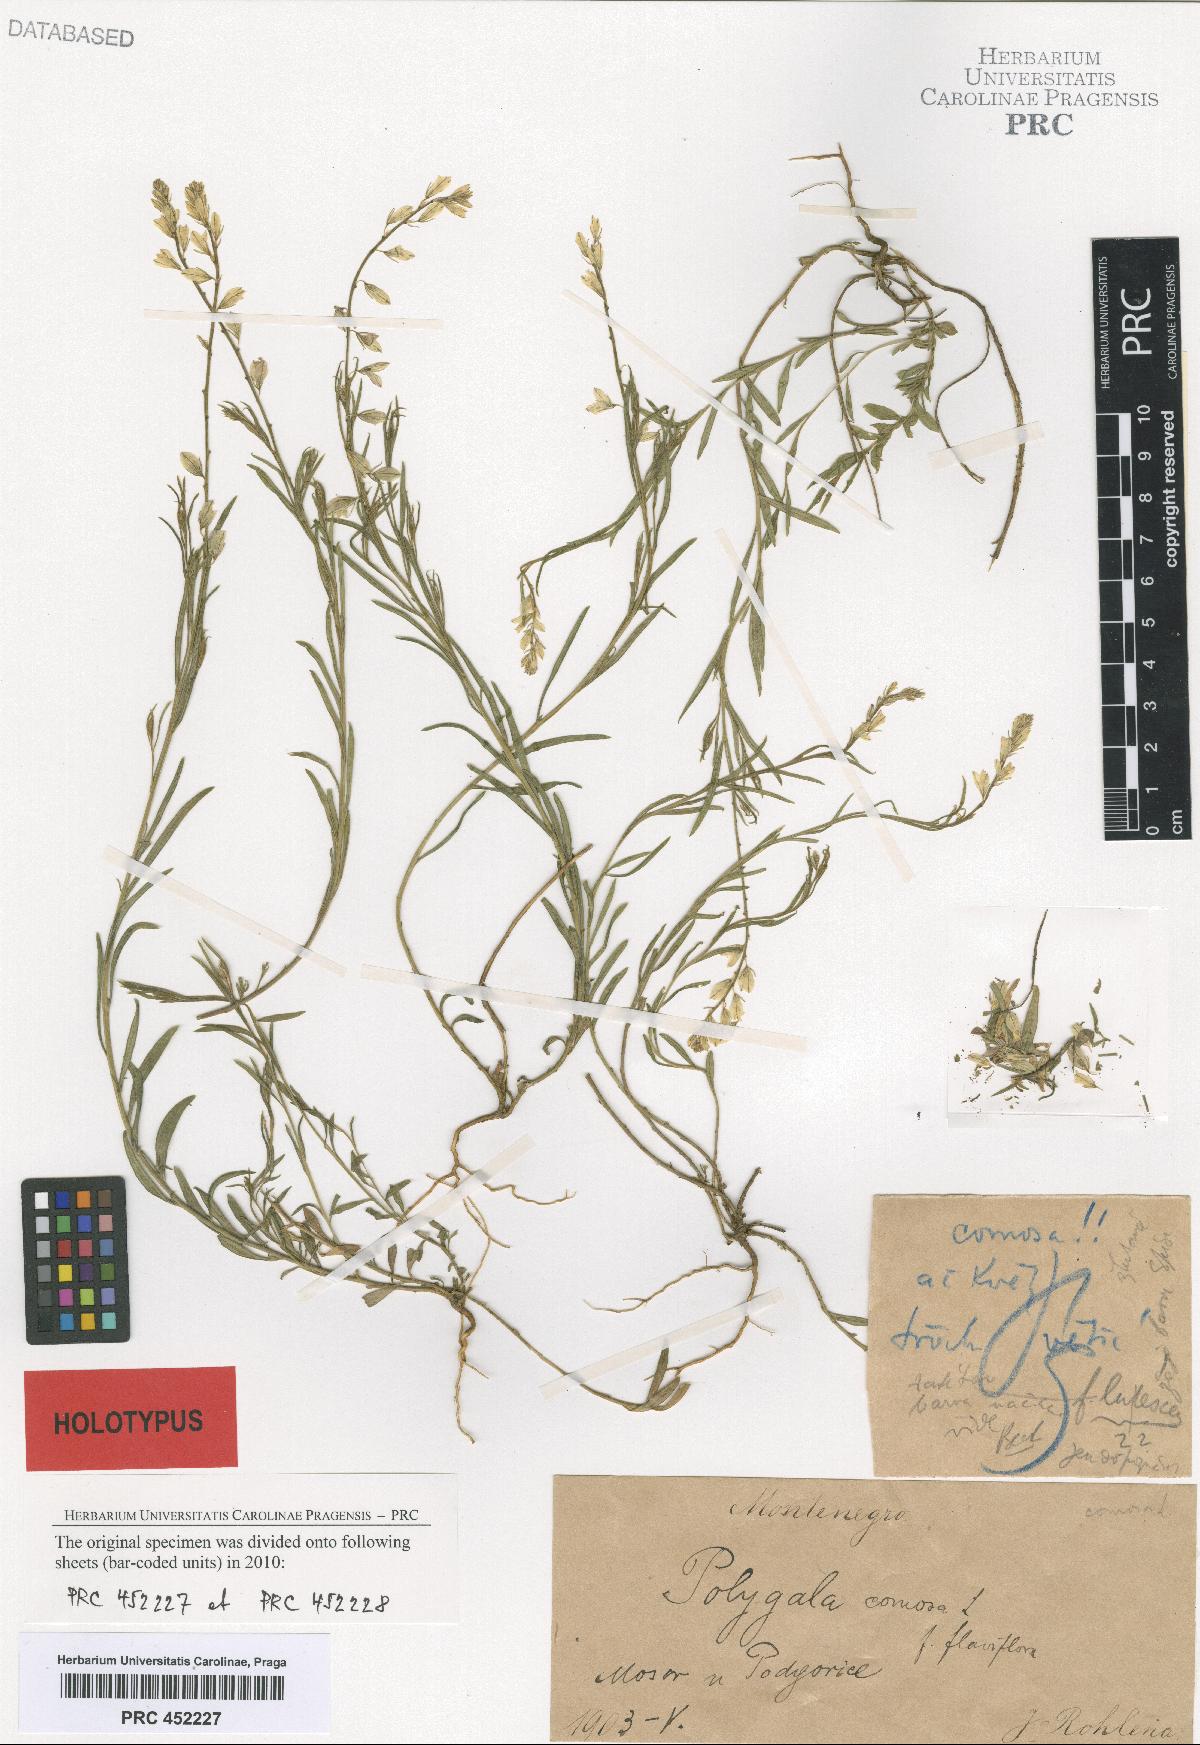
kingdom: Plantae
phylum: Tracheophyta
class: Magnoliopsida
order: Fabales
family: Polygalaceae
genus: Polygala
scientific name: Polygala comosa
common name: Tufted milkwort
